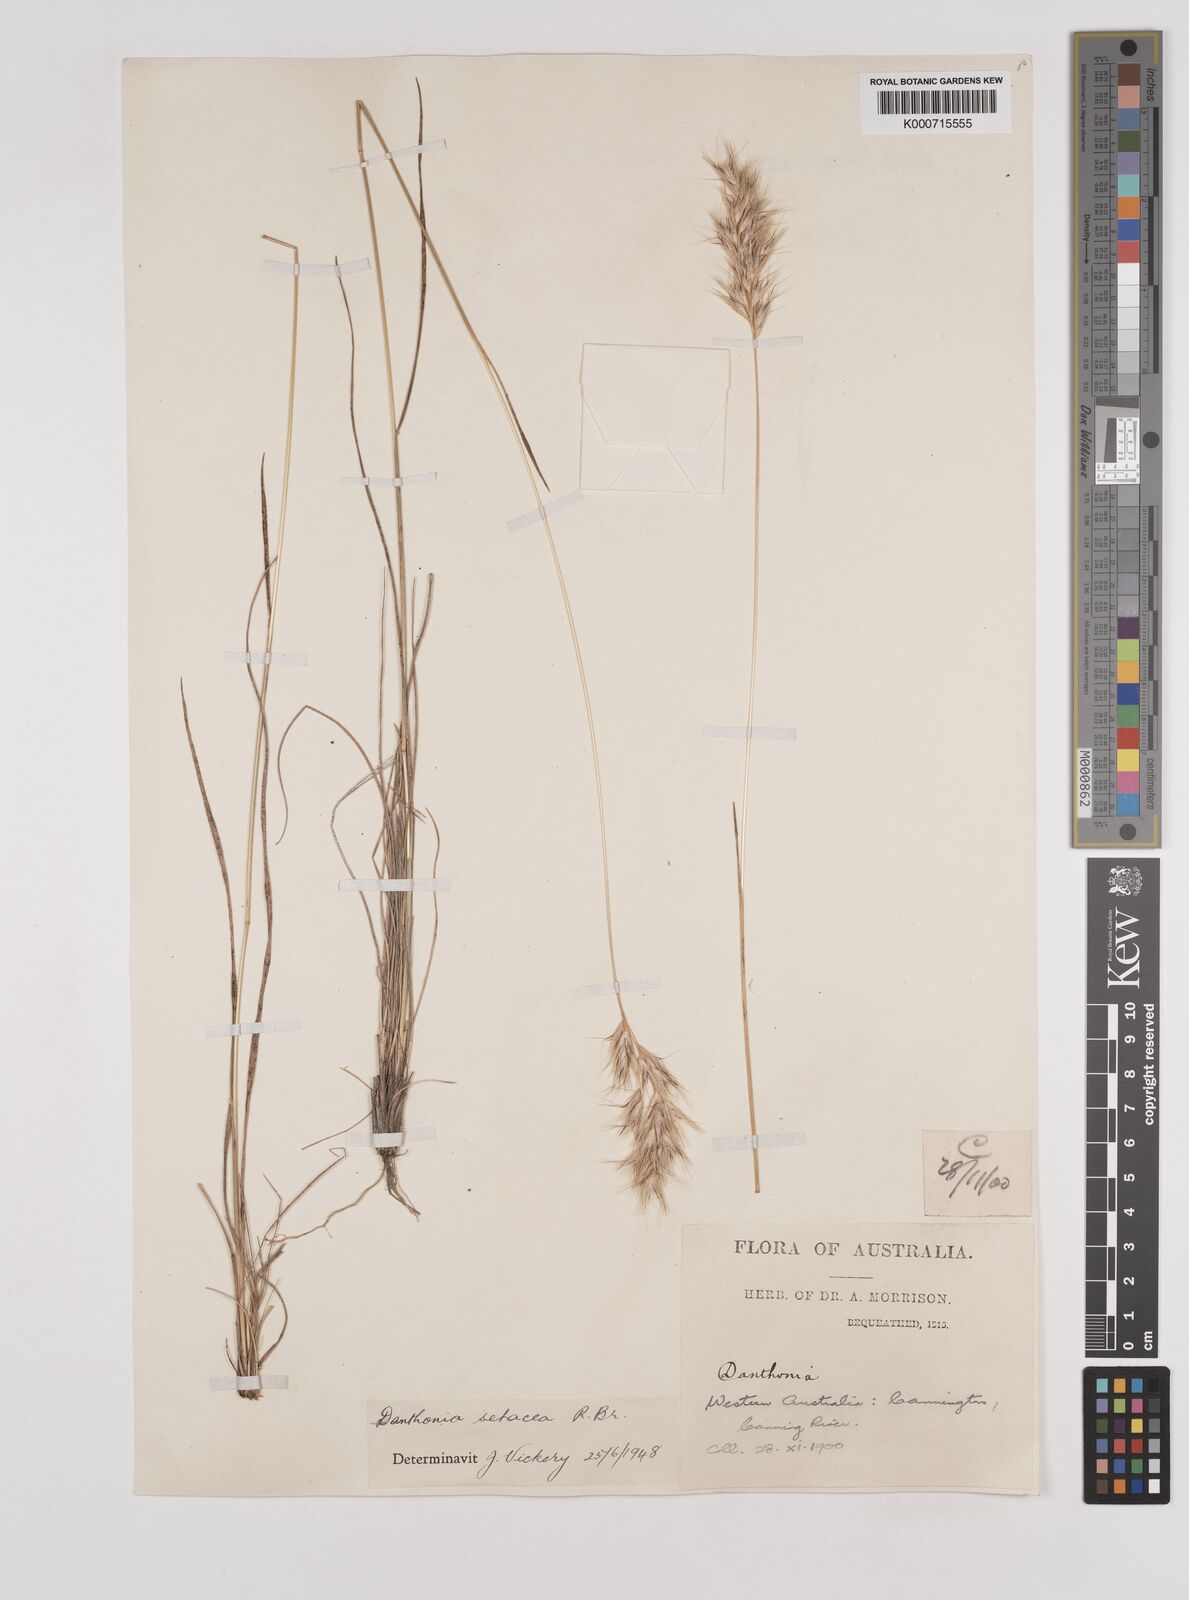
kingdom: Plantae
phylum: Tracheophyta
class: Liliopsida
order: Poales
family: Poaceae
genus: Rytidosperma
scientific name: Rytidosperma setaceum
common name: Small-flower wallaby grass
